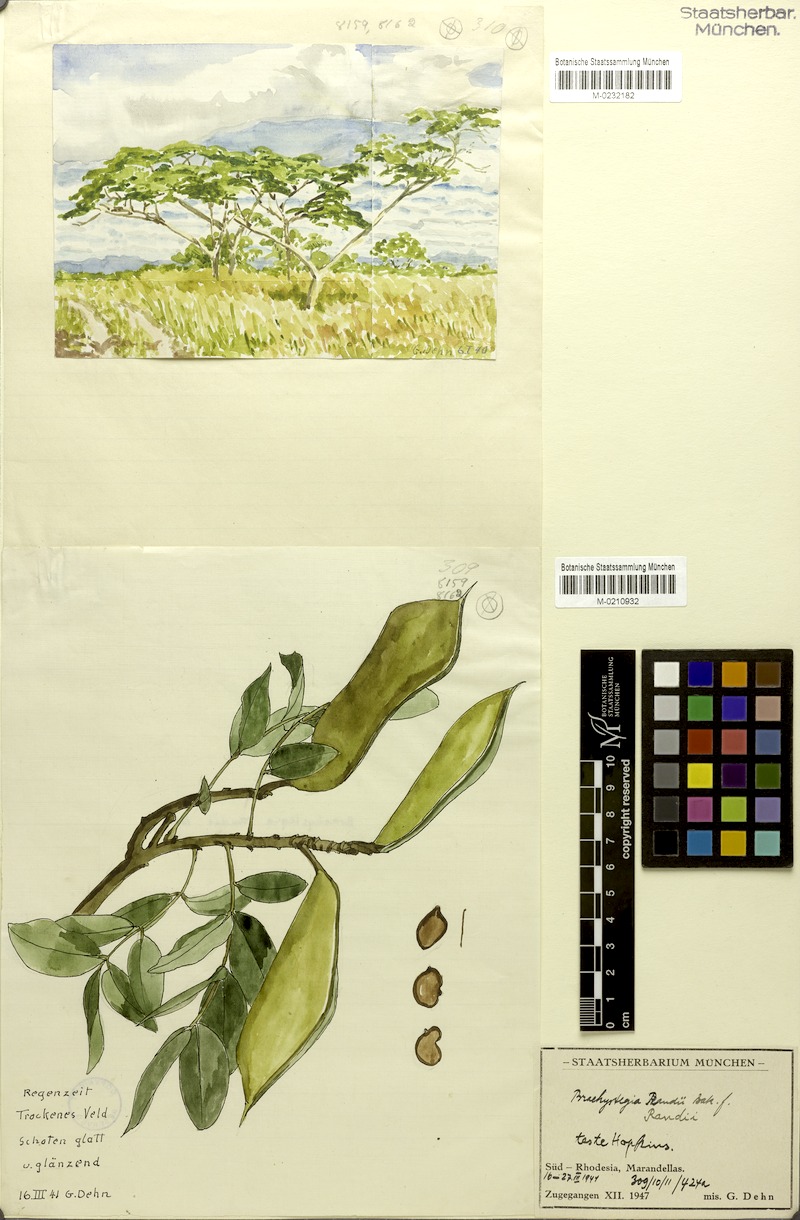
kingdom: Plantae
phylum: Tracheophyta
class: Magnoliopsida
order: Fabales
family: Fabaceae
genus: Brachystegia
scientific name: Brachystegia spiciformis
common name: Zebrawood
